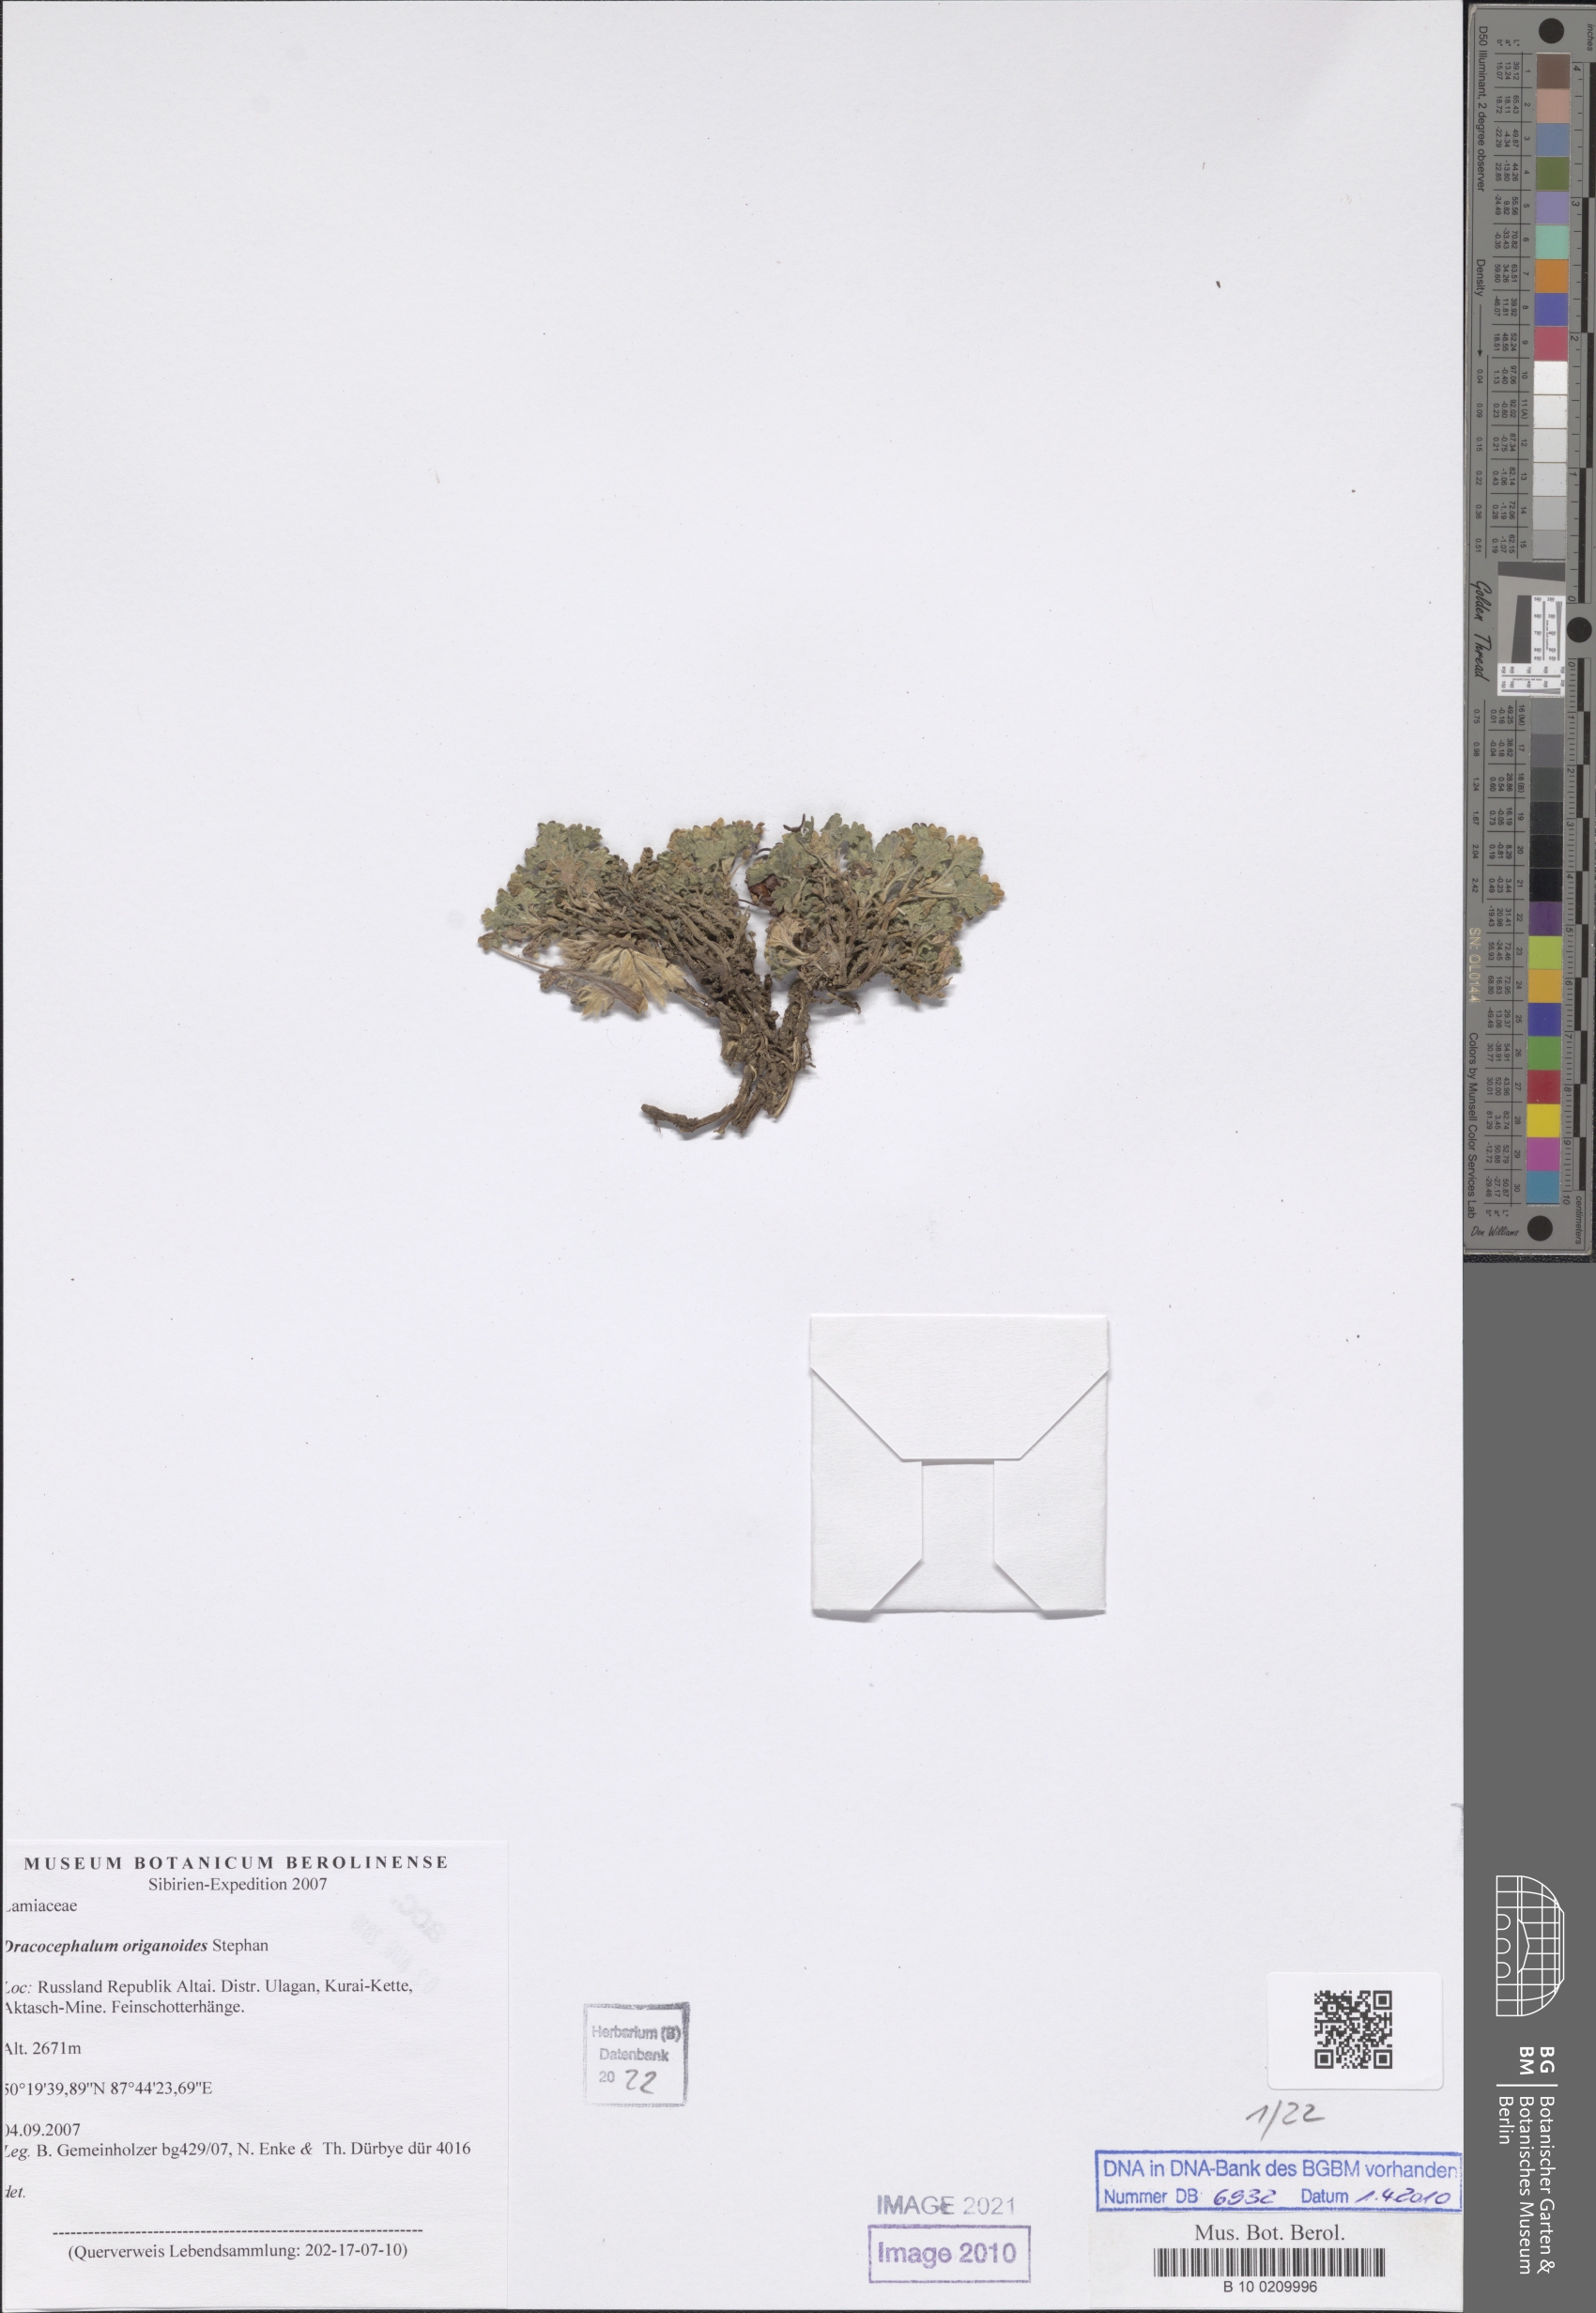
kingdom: Plantae
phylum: Tracheophyta
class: Magnoliopsida
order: Lamiales
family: Lamiaceae
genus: Dracocephalum
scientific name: Dracocephalum origanoides
